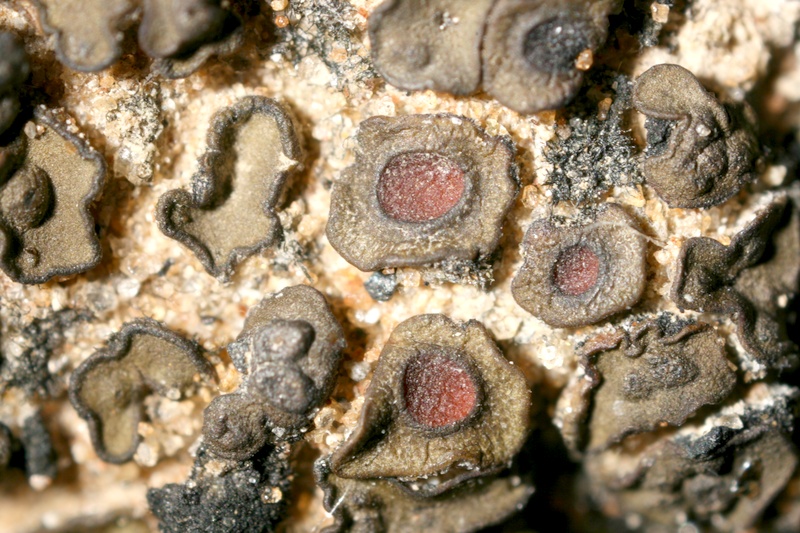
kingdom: Fungi
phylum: Ascomycota
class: Lichinomycetes
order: Lichinales
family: Peltulaceae
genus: Peltula
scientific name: Peltula patellata
